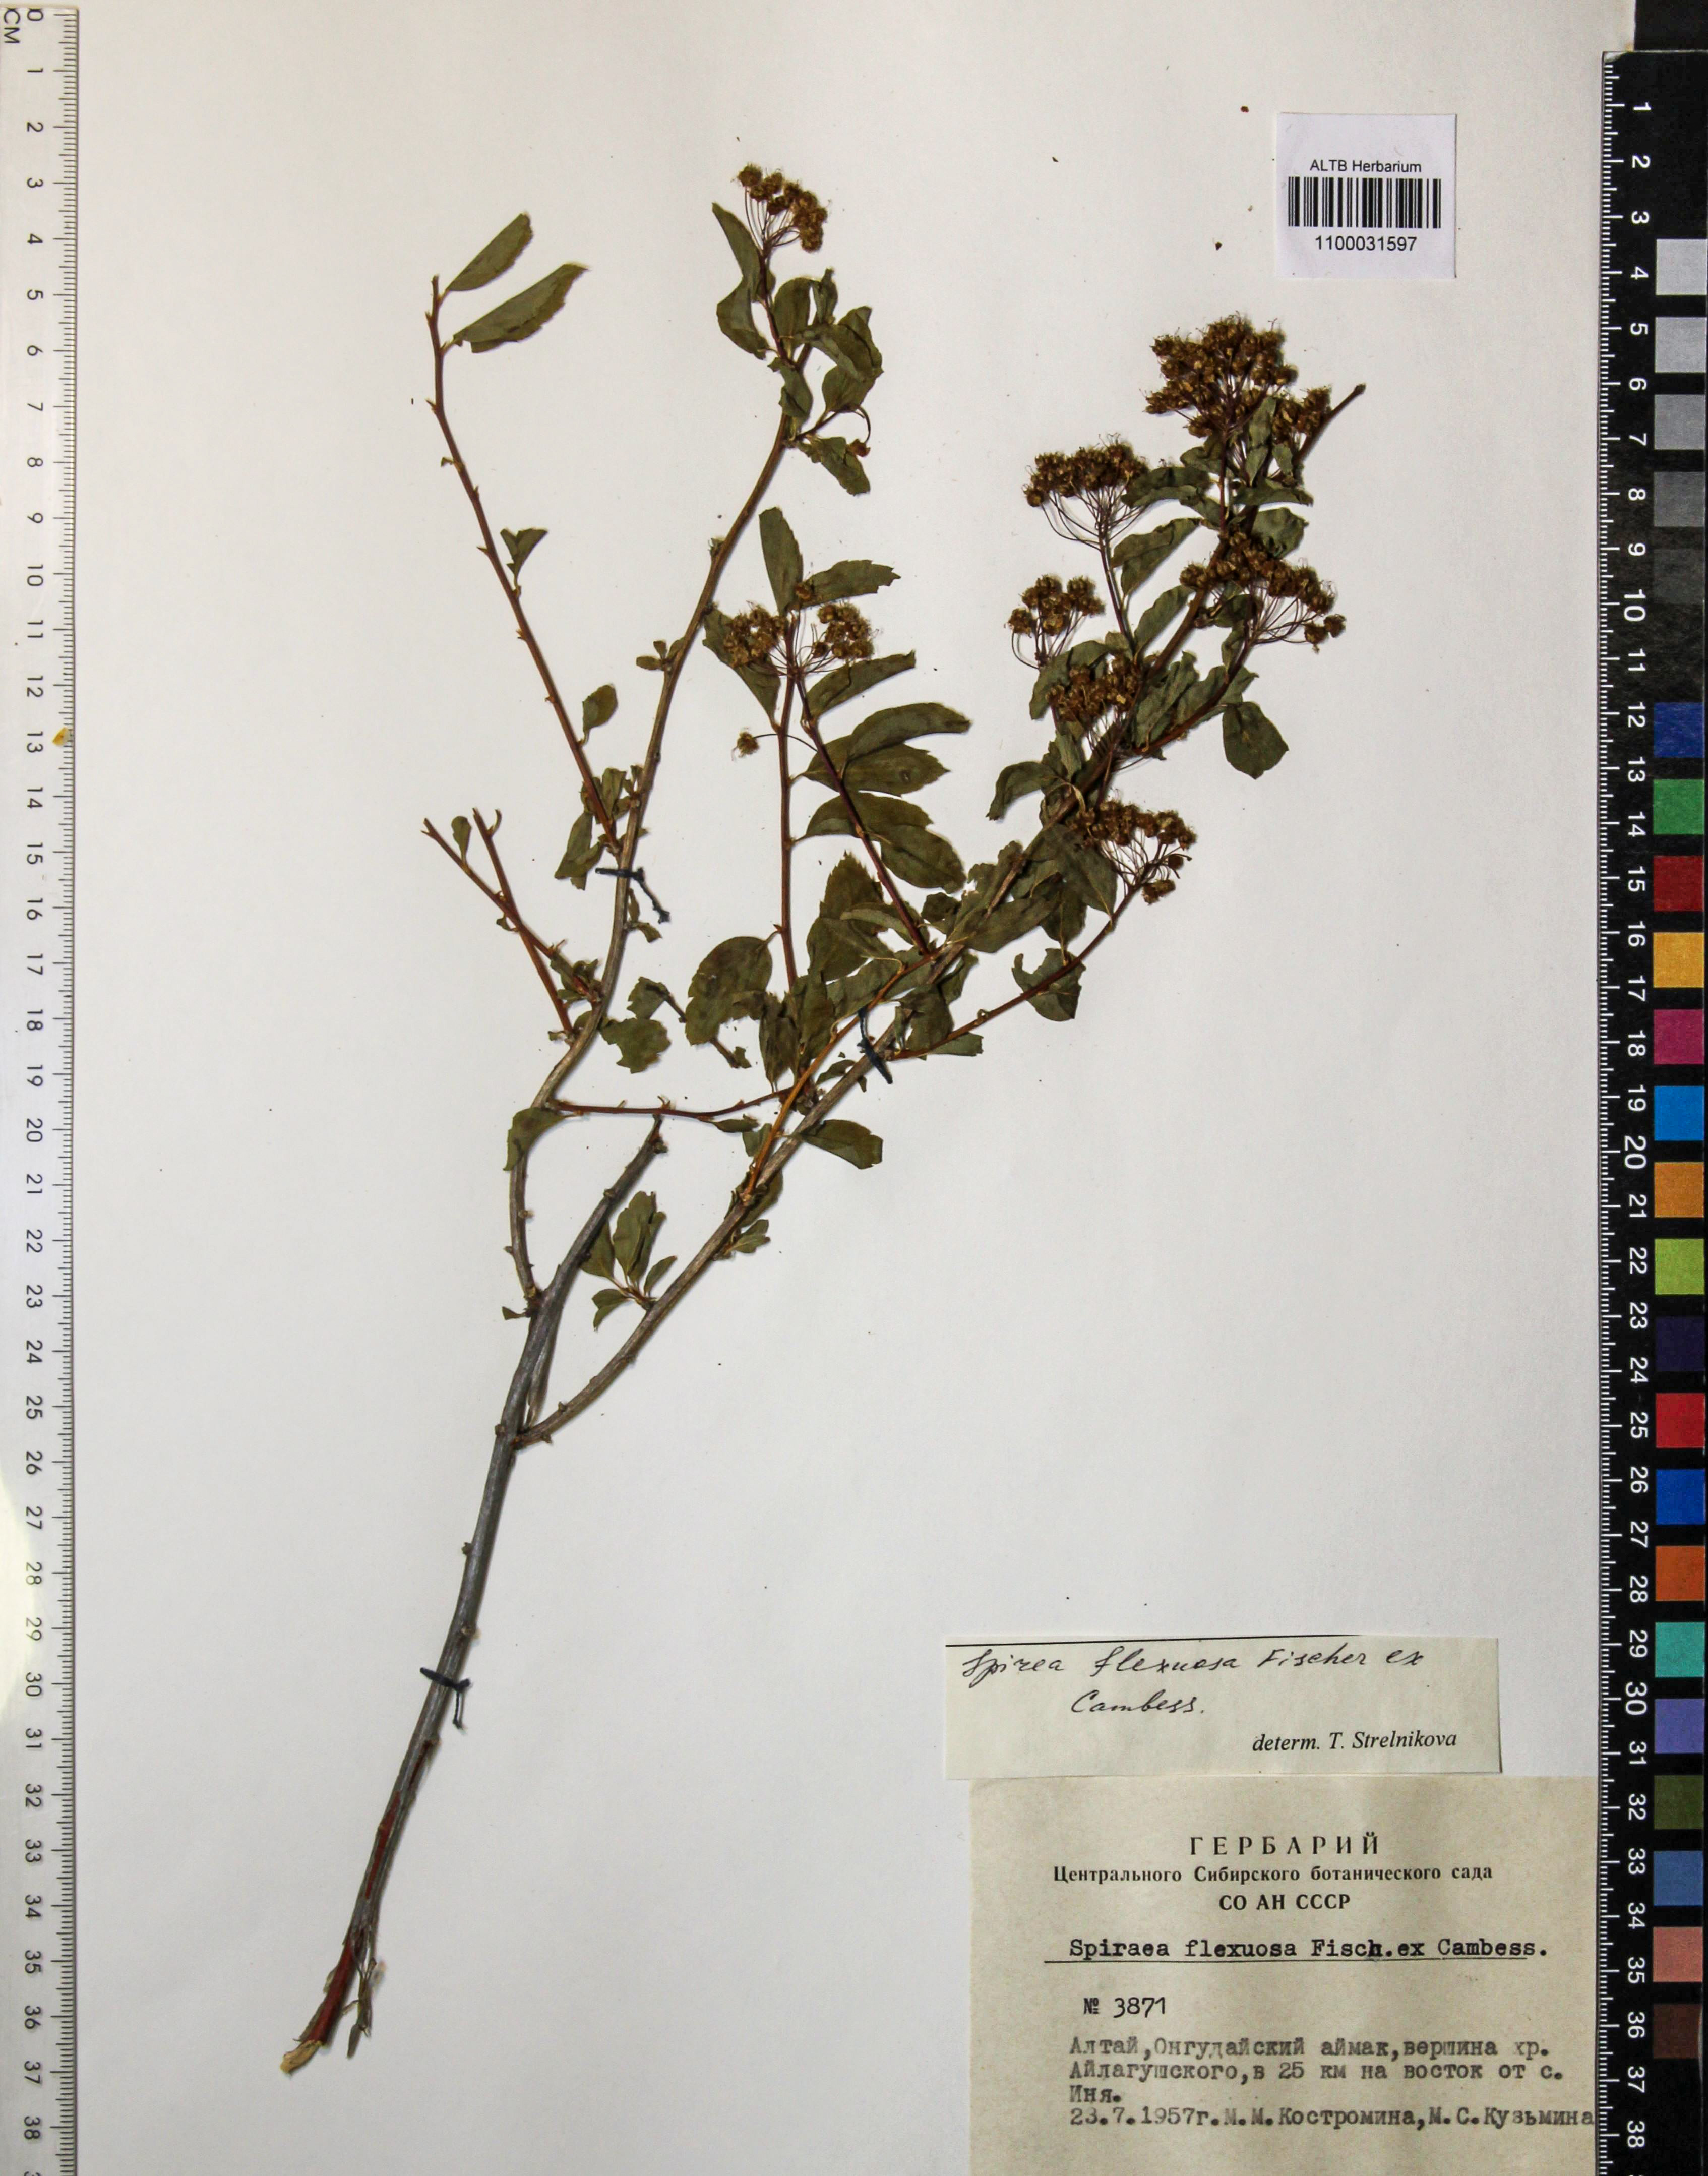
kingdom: Plantae
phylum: Tracheophyta
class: Magnoliopsida
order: Rosales
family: Rosaceae
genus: Spiraea
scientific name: Spiraea flexuosa
